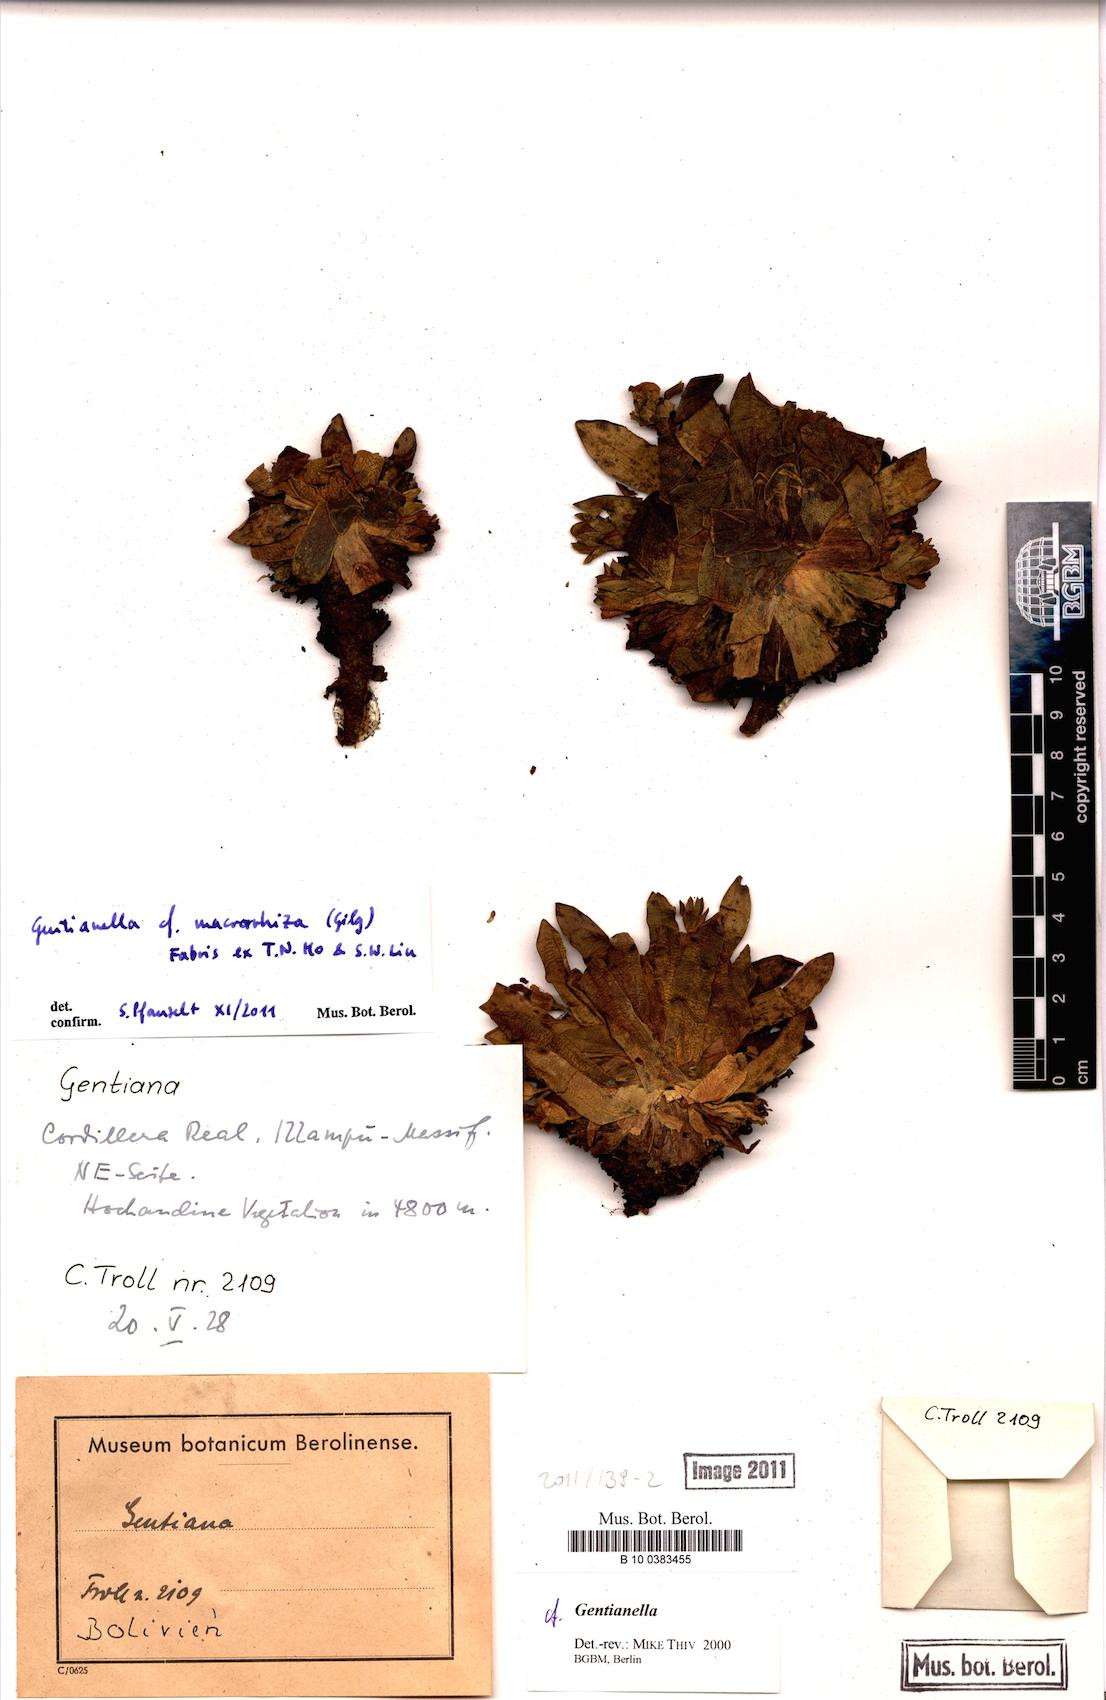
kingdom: Plantae
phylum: Tracheophyta
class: Magnoliopsida
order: Gentianales
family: Gentianaceae
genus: Gentianella
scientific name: Gentianella macrorrhiza
